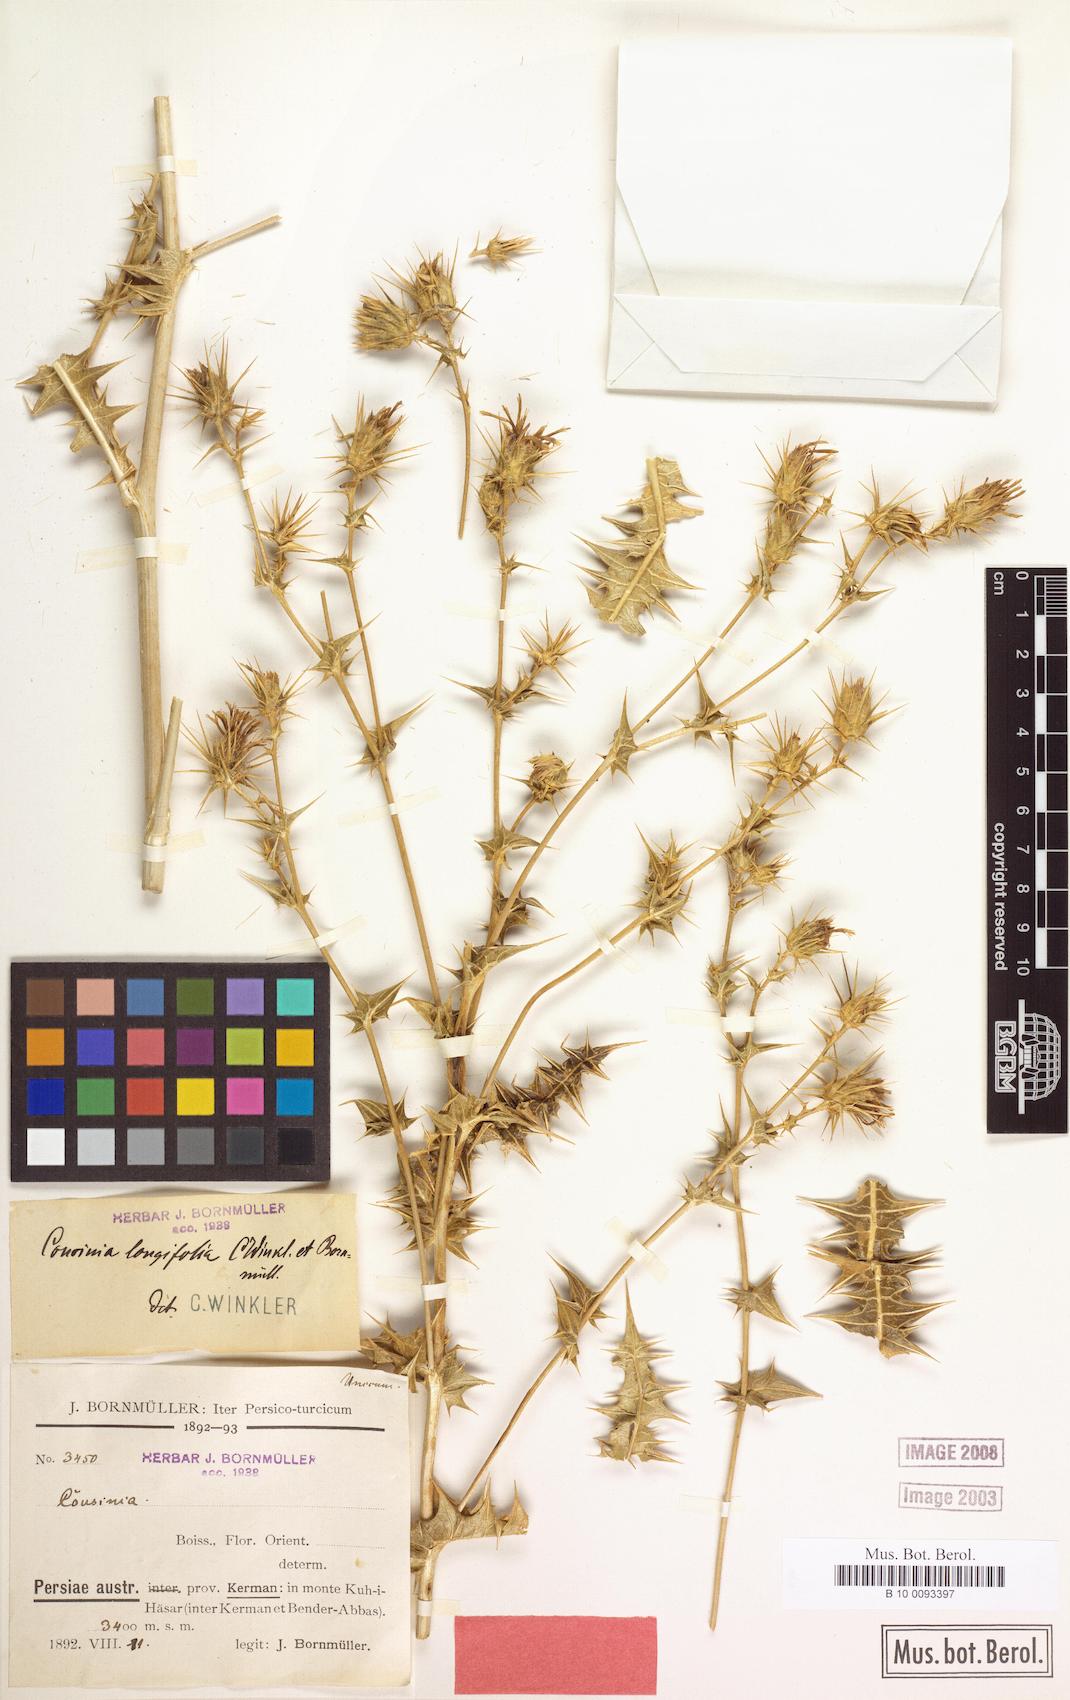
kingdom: Plantae
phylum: Tracheophyta
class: Magnoliopsida
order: Asterales
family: Asteraceae
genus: Cousinia
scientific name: Cousinia longifolia
